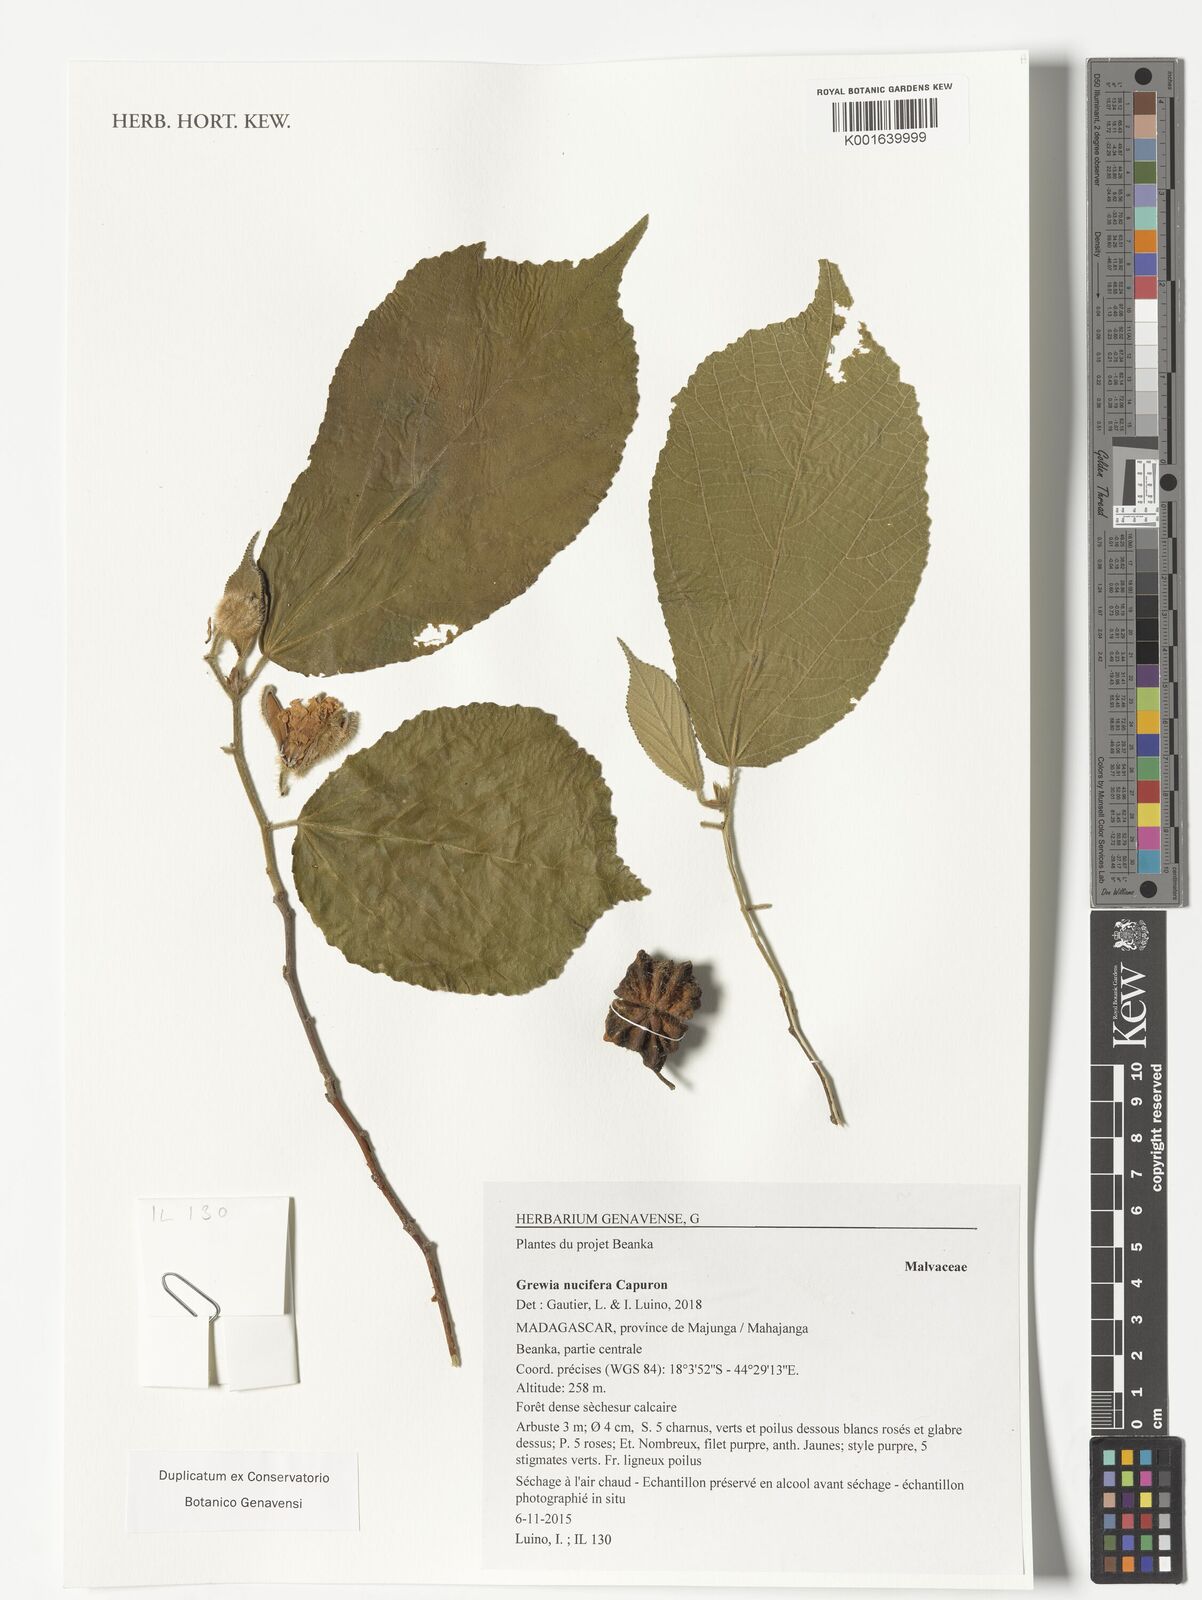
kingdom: Plantae
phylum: Tracheophyta
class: Magnoliopsida
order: Malvales
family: Malvaceae
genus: Grewia
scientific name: Grewia
